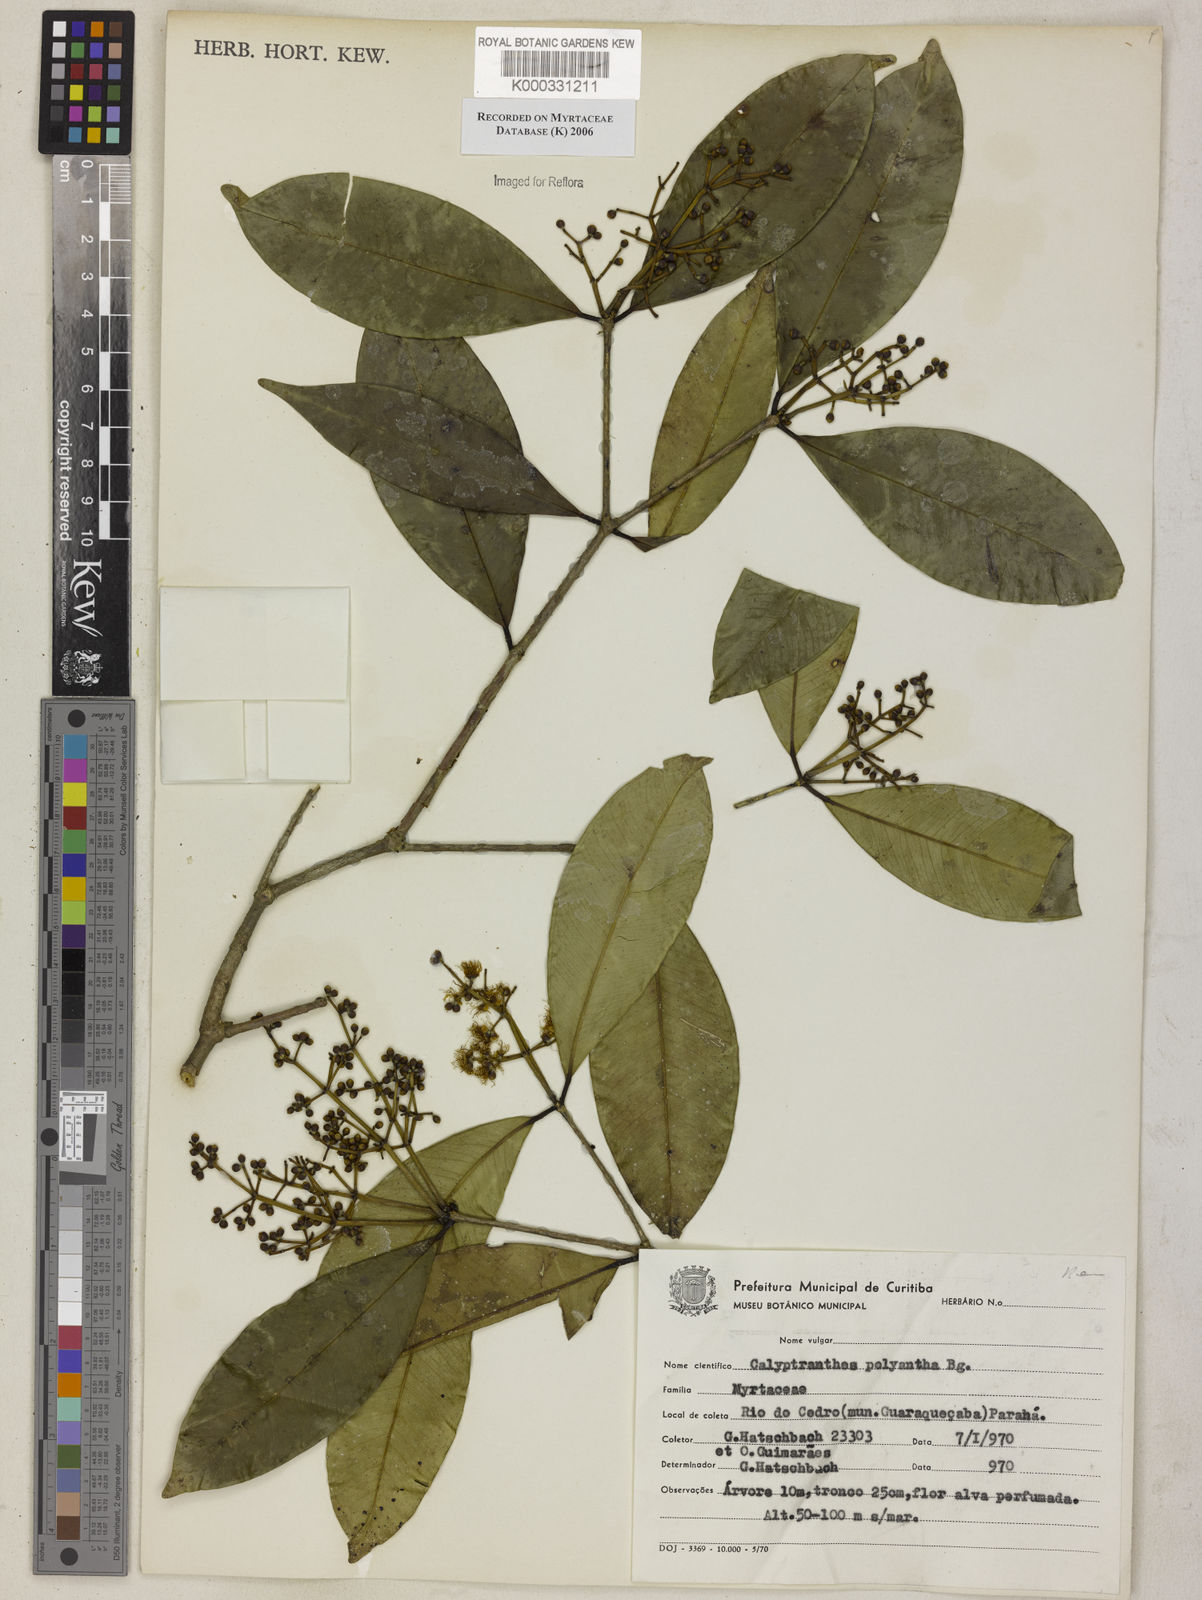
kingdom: Plantae
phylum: Tracheophyta
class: Magnoliopsida
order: Myrtales
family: Myrtaceae
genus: Myrcia
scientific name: Myrcia neolucida
